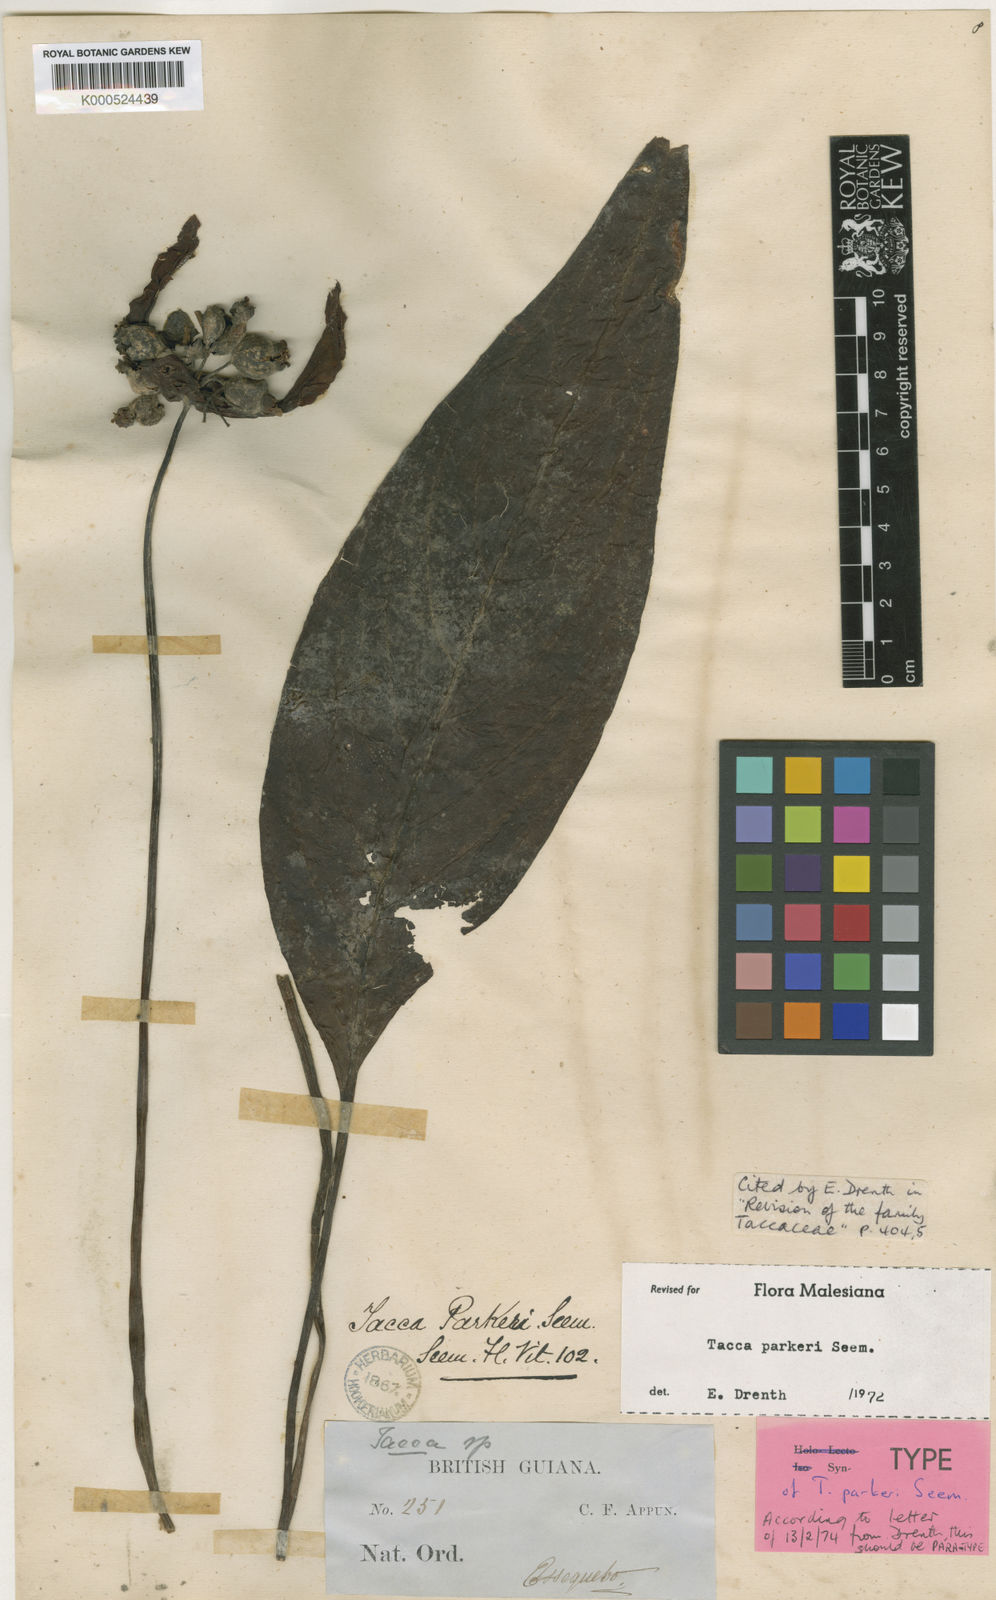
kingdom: Plantae
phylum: Tracheophyta
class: Liliopsida
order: Dioscoreales
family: Dioscoreaceae
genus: Tacca
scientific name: Tacca parkeri
